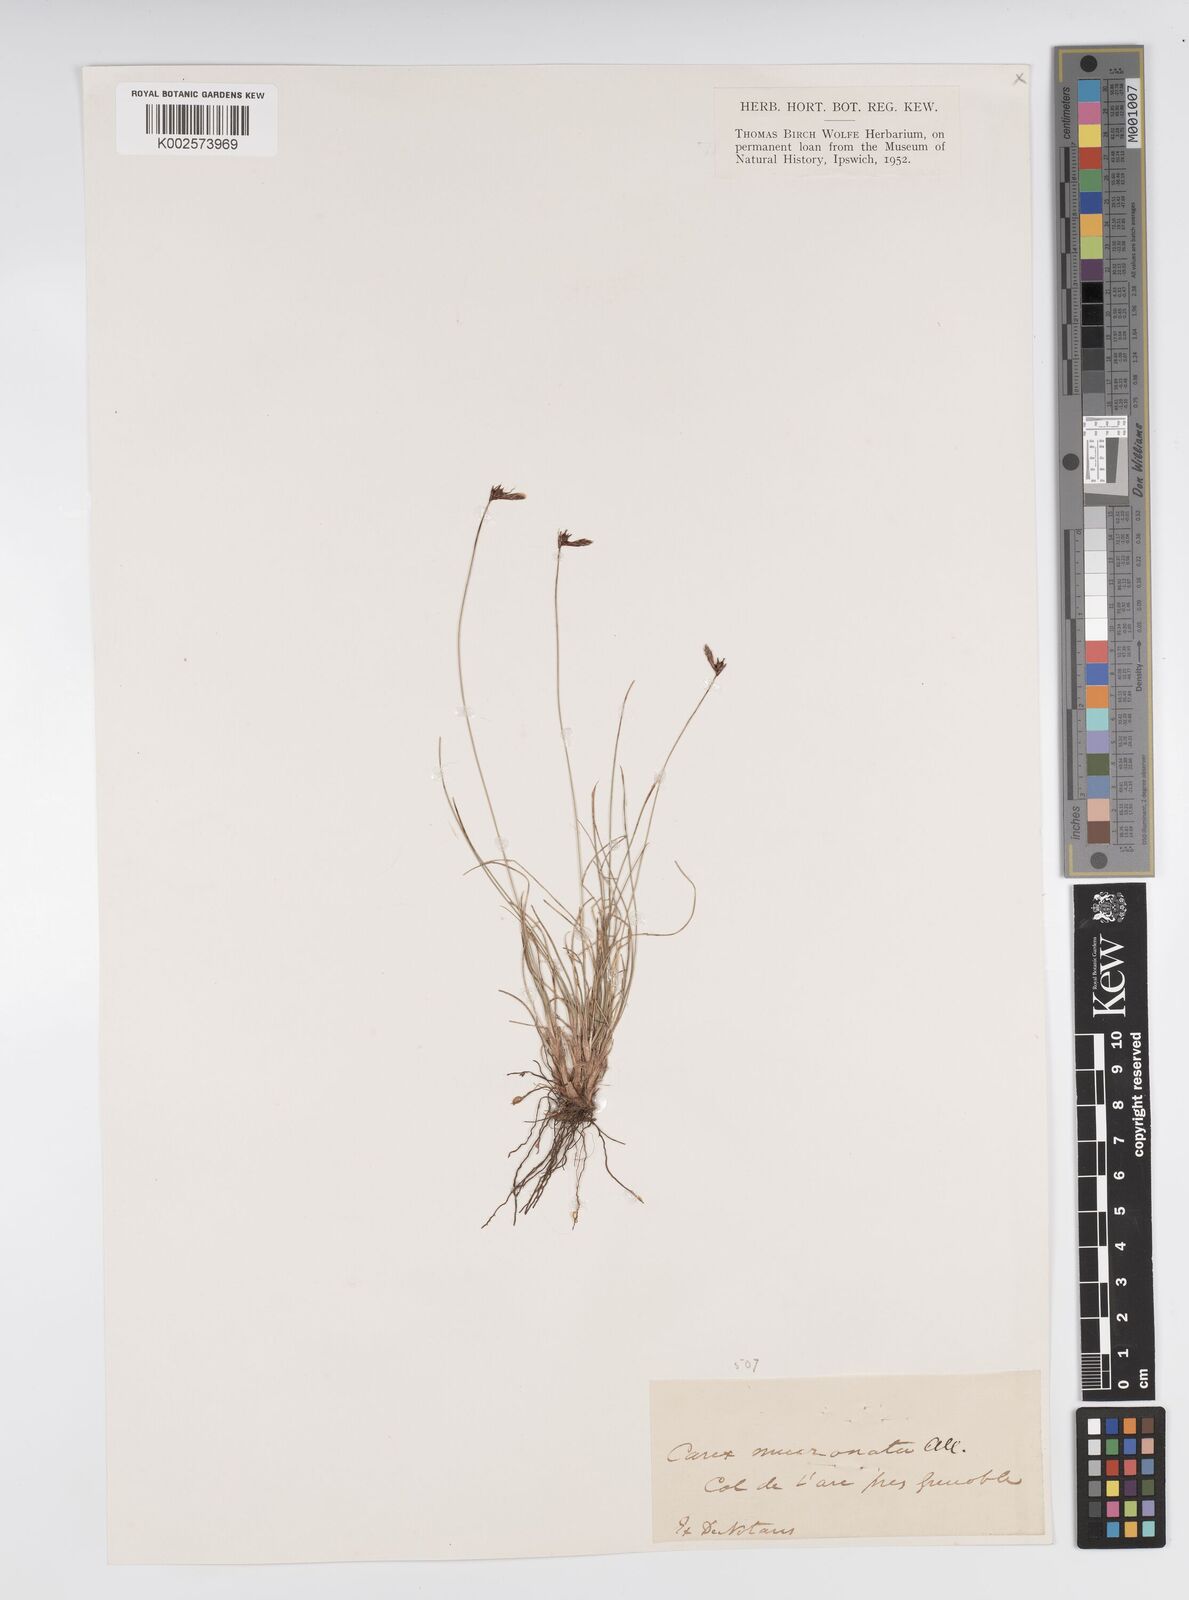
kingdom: Plantae
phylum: Tracheophyta
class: Liliopsida
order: Poales
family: Cyperaceae
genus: Carex
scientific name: Carex mucronata
